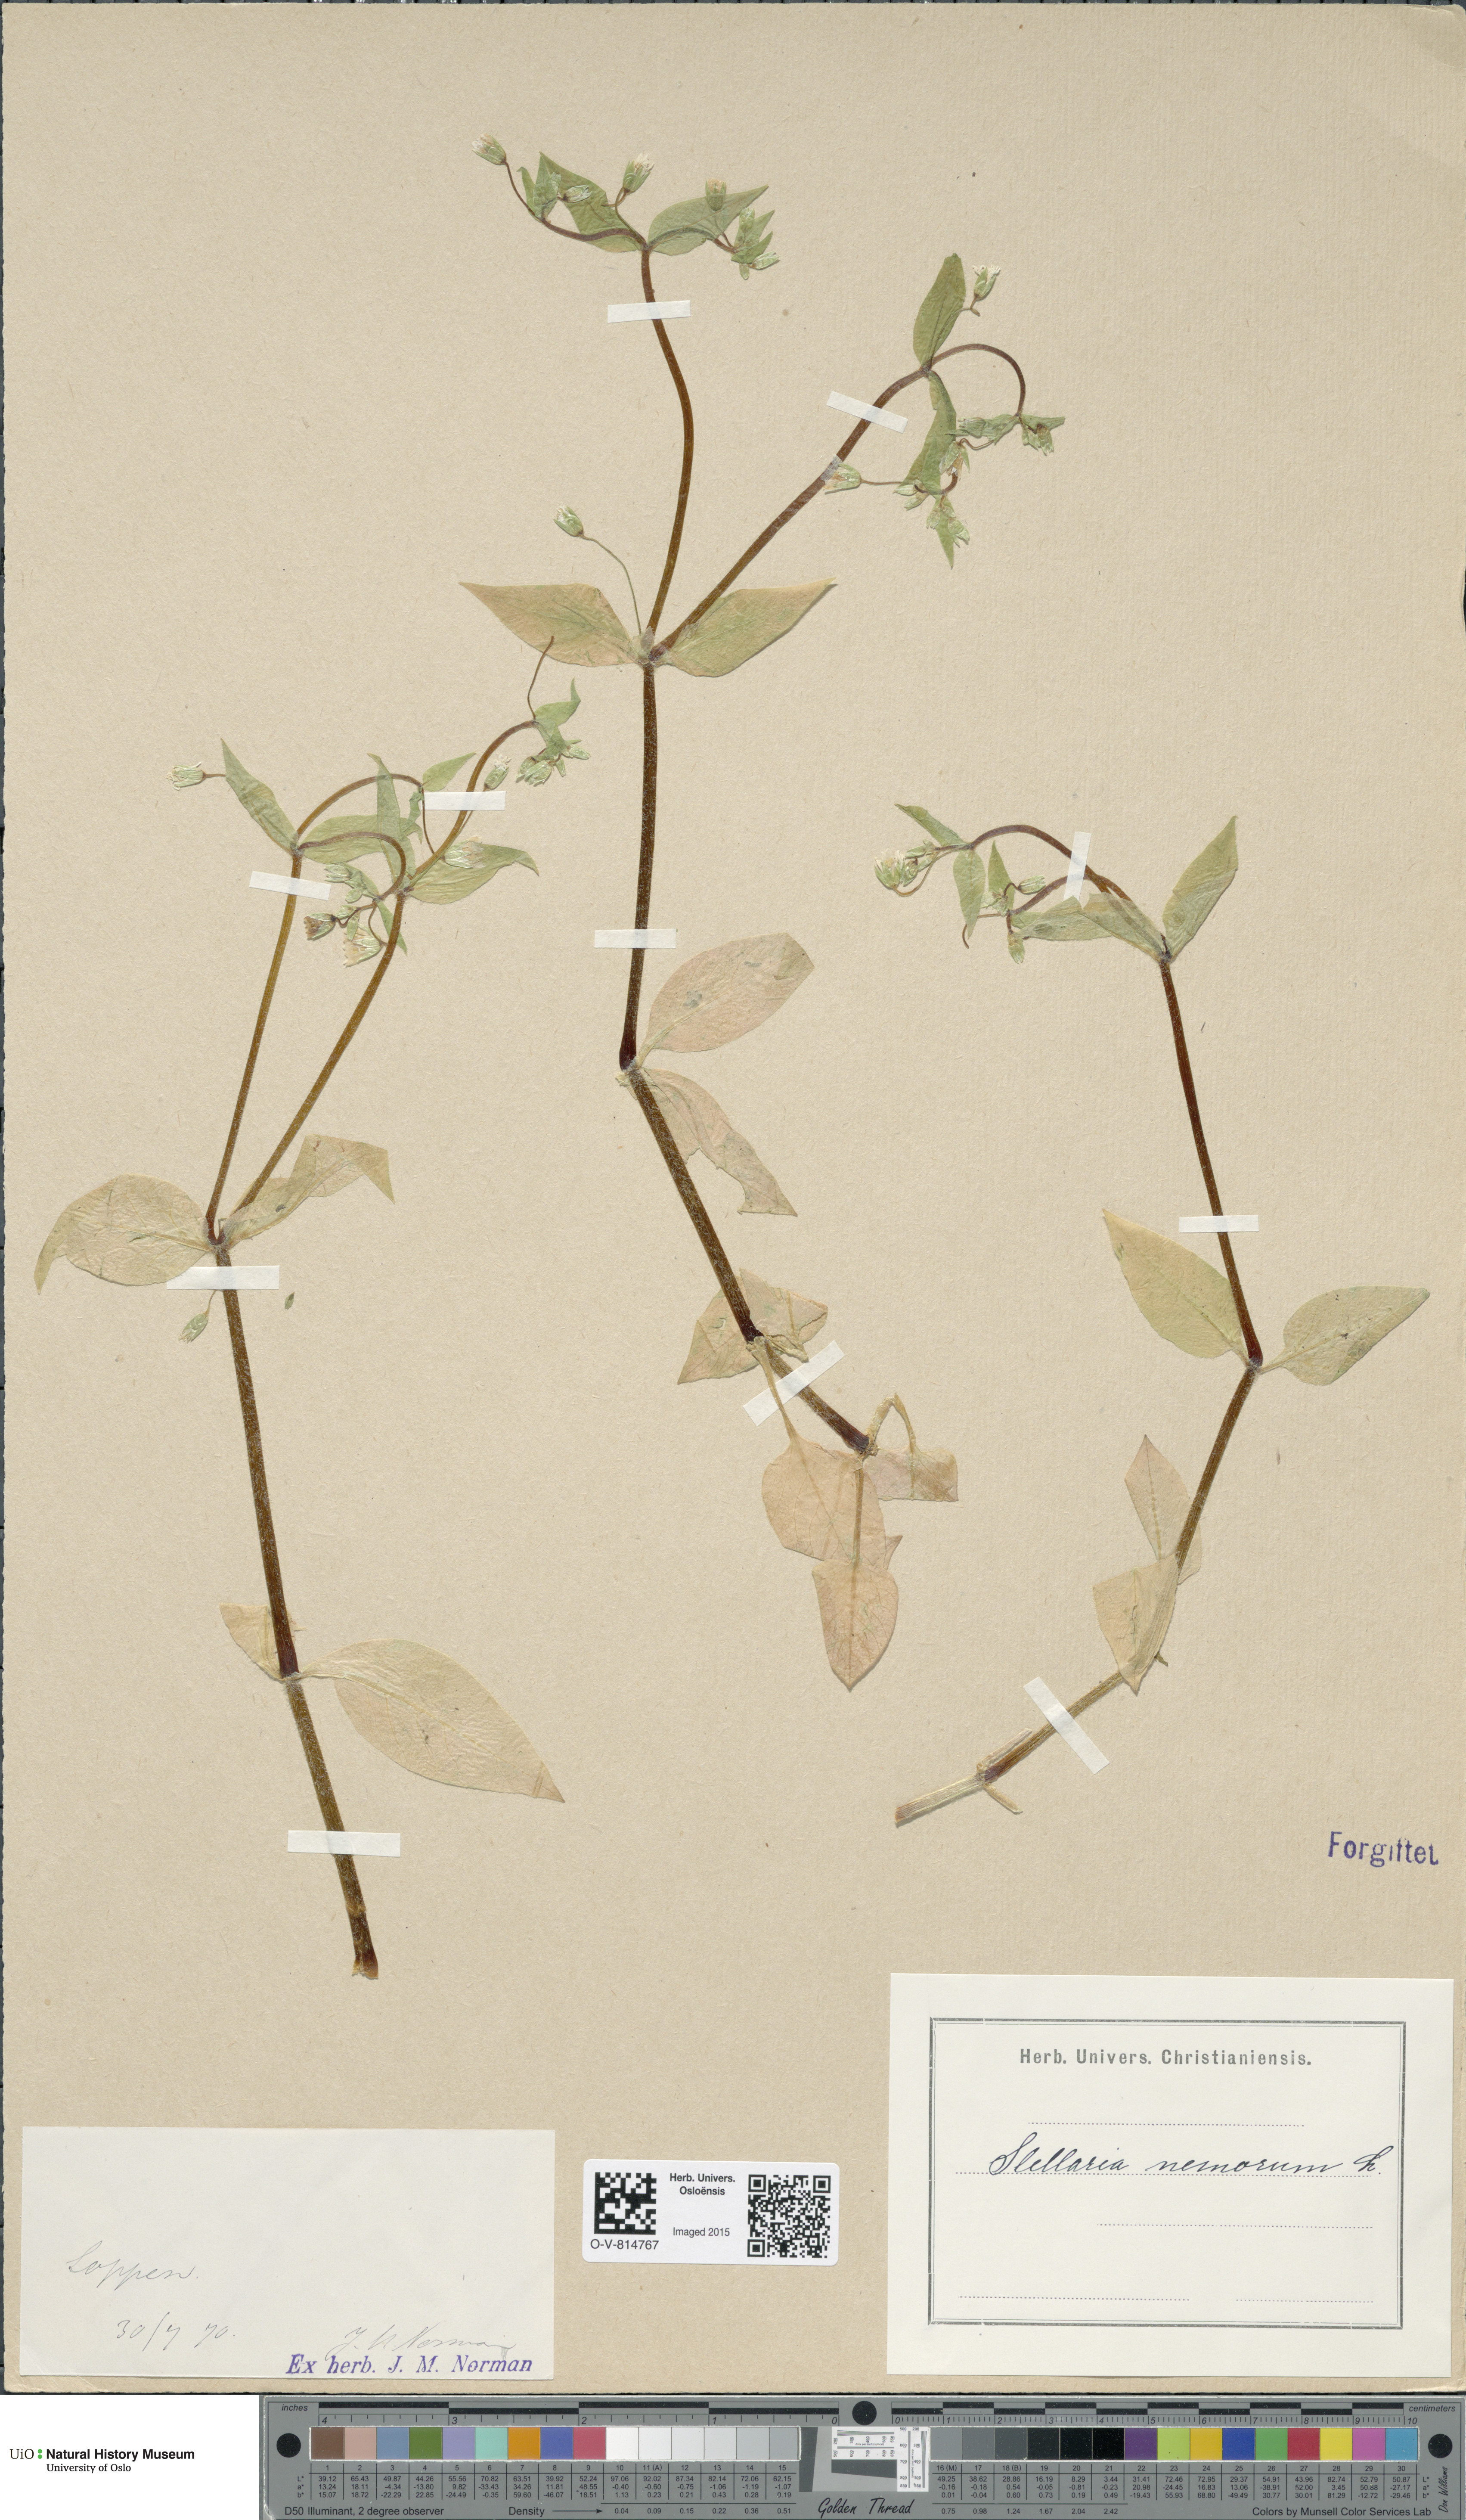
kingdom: Plantae
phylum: Tracheophyta
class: Magnoliopsida
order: Caryophyllales
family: Caryophyllaceae
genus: Stellaria
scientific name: Stellaria nemorum
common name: Wood stitchwort
